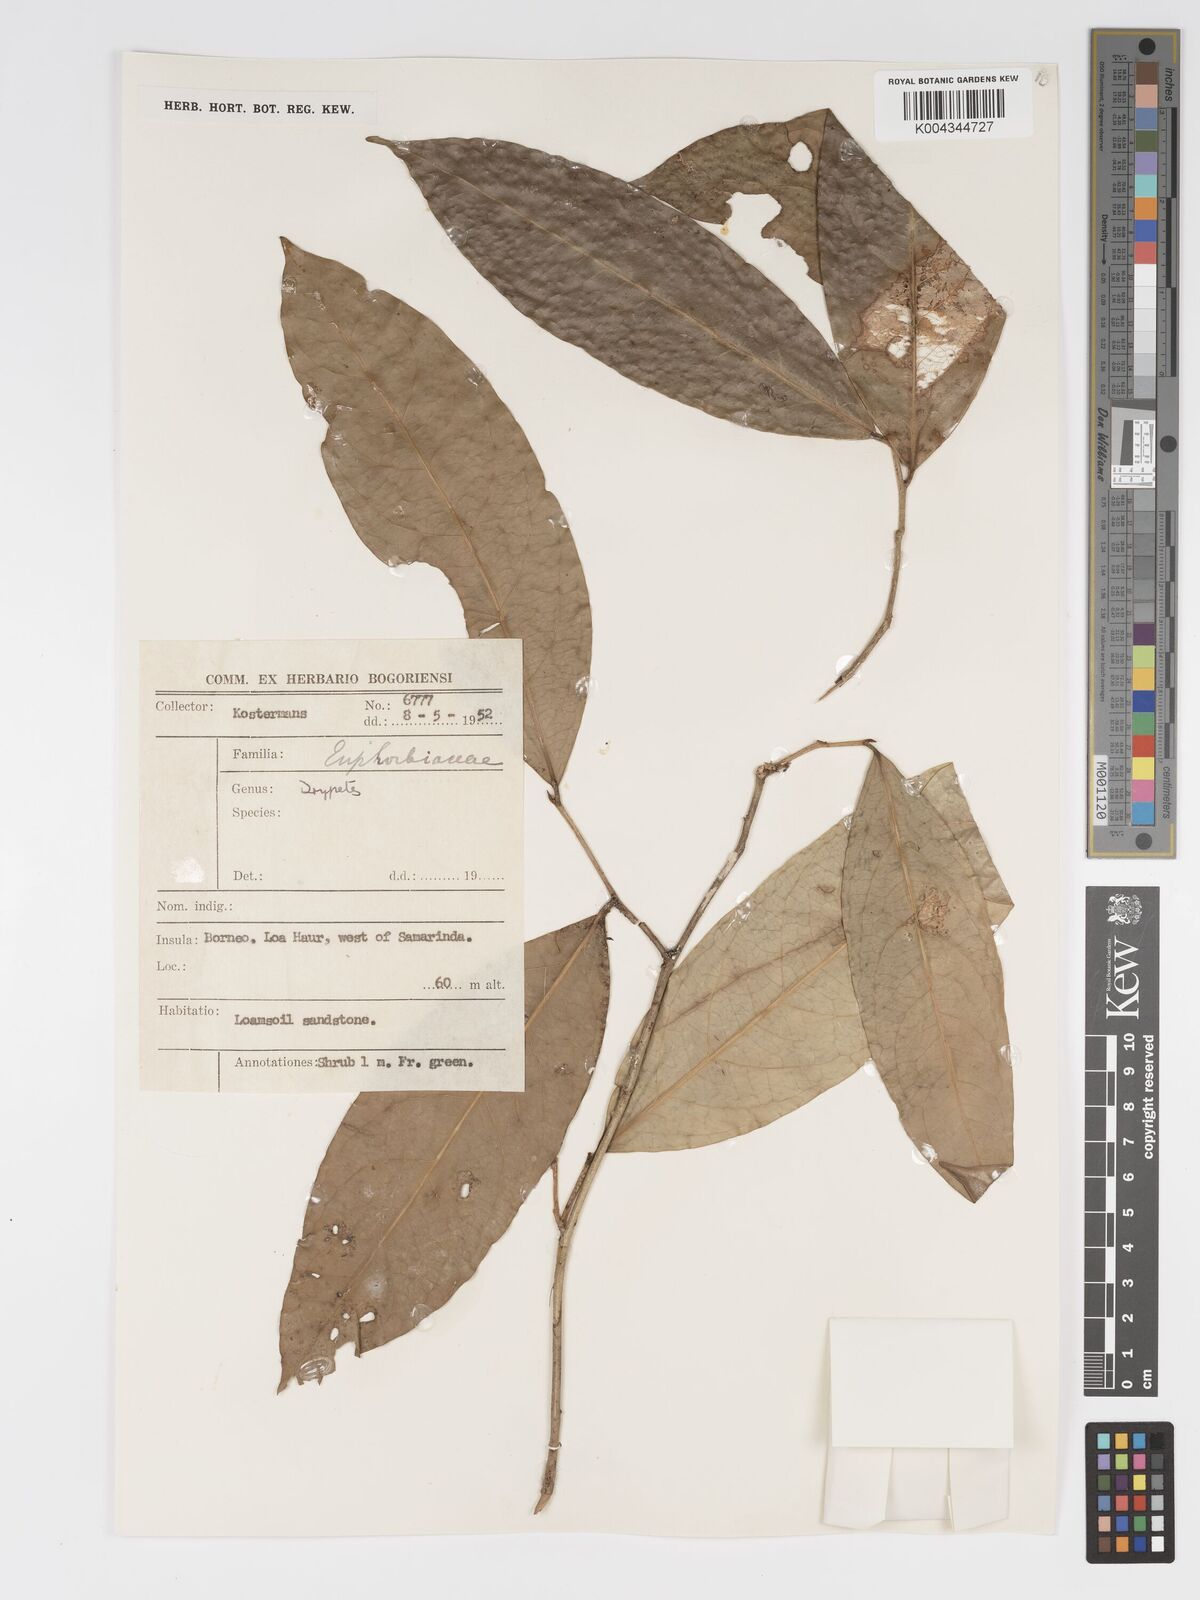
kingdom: Plantae
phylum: Tracheophyta
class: Magnoliopsida
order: Malpighiales
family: Putranjivaceae
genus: Drypetes
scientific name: Drypetes curtisii
